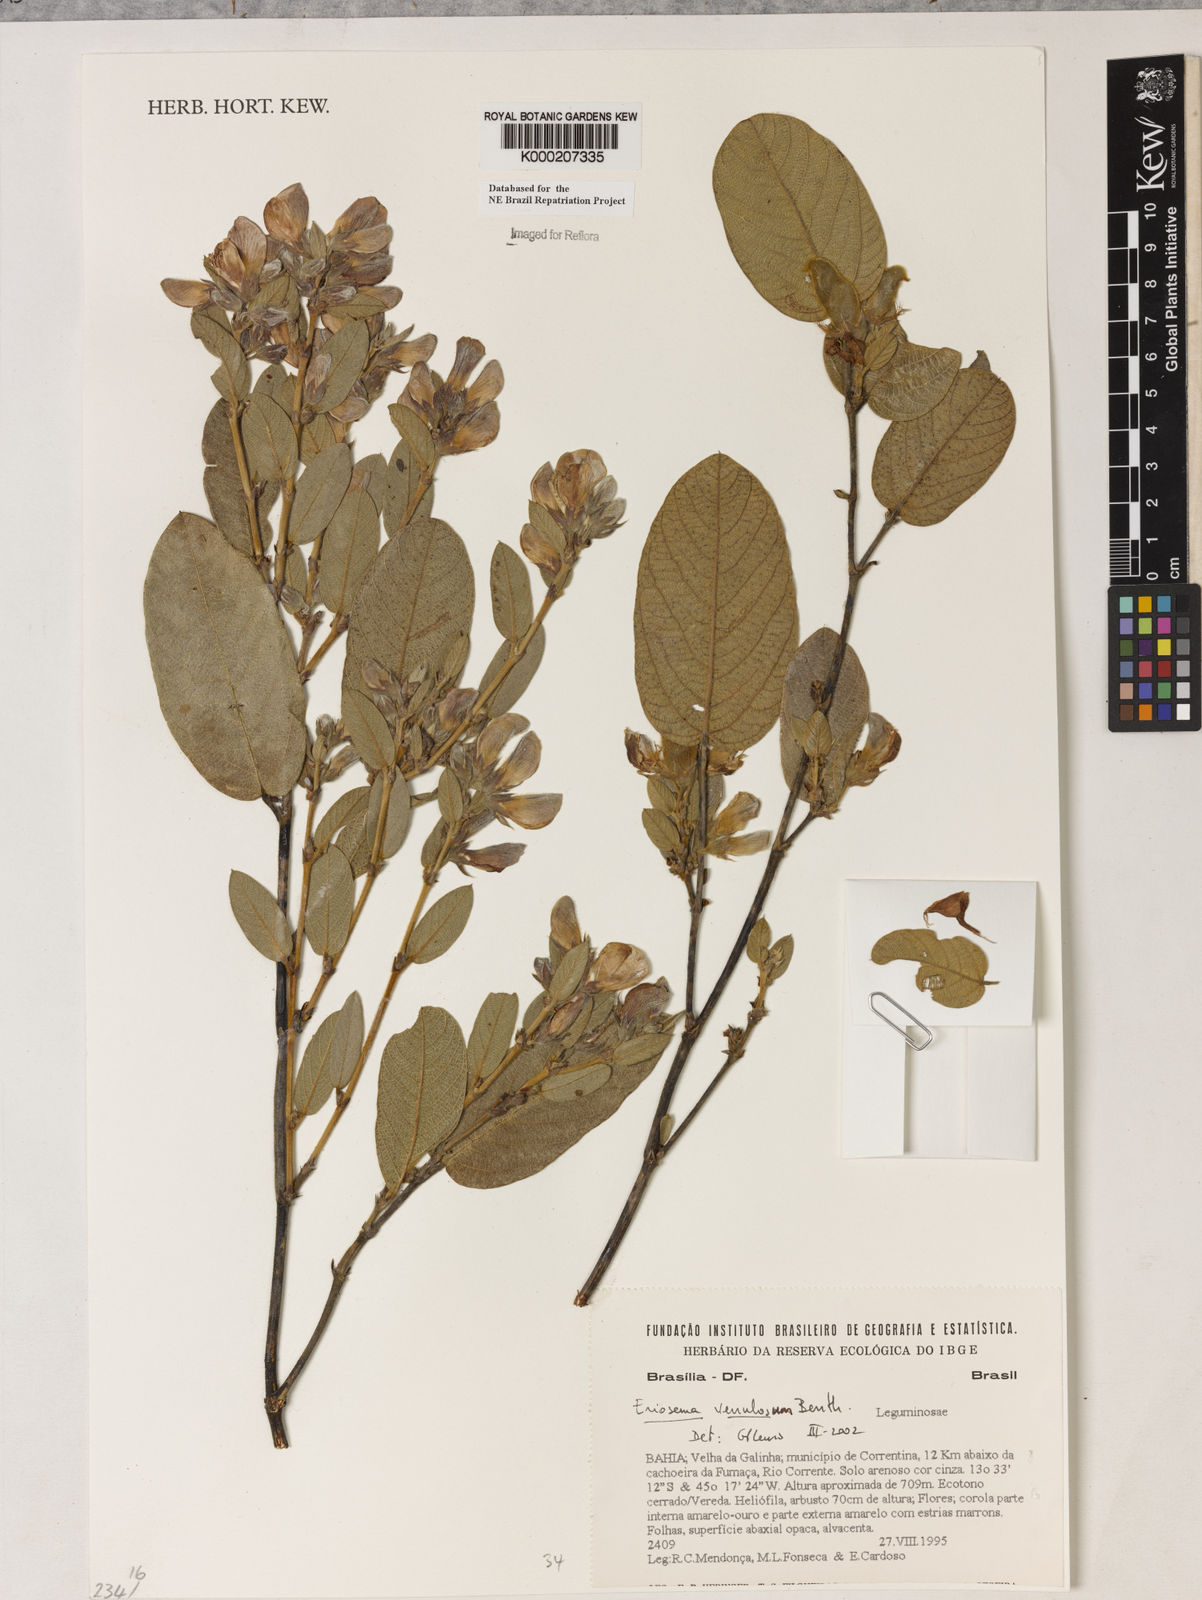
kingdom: Plantae
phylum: Tracheophyta
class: Magnoliopsida
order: Fabales
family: Fabaceae
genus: Eriosema
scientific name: Eriosema venulosum
